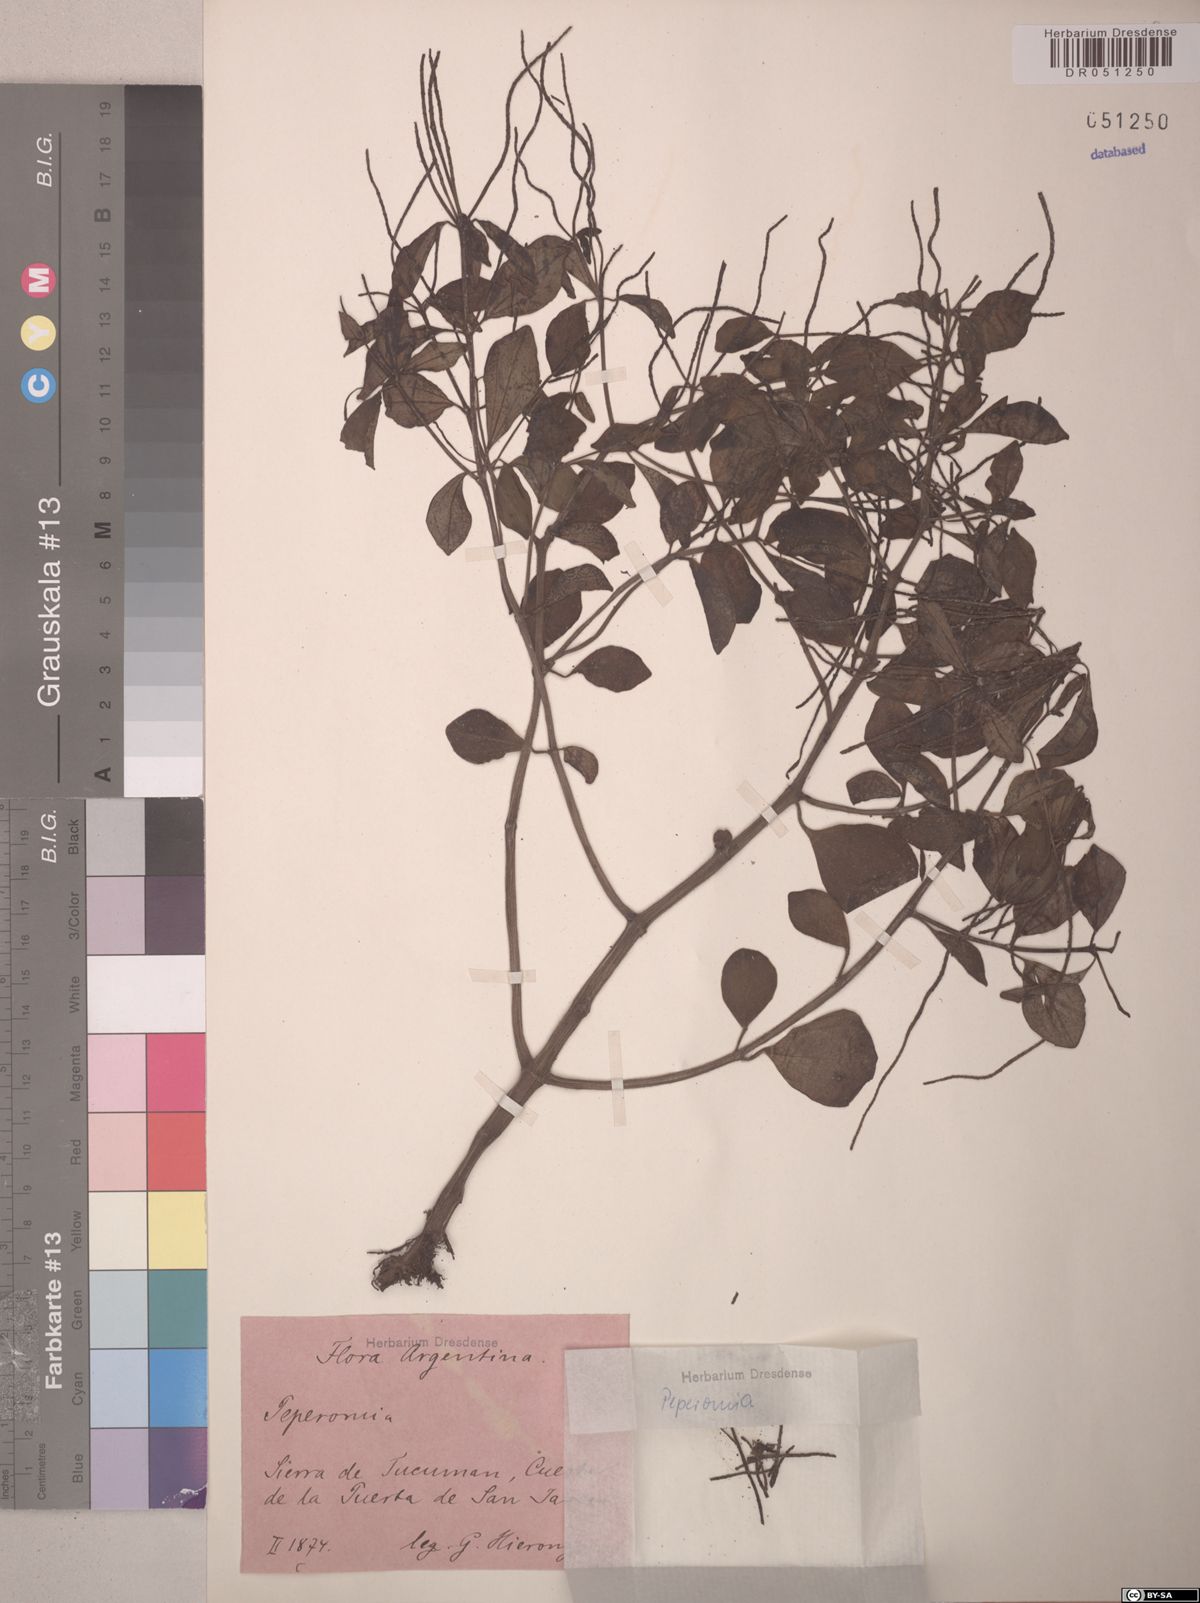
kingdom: Plantae
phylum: Tracheophyta
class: Magnoliopsida
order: Piperales
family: Piperaceae
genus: Peperomia
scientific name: Peperomia polystachya
